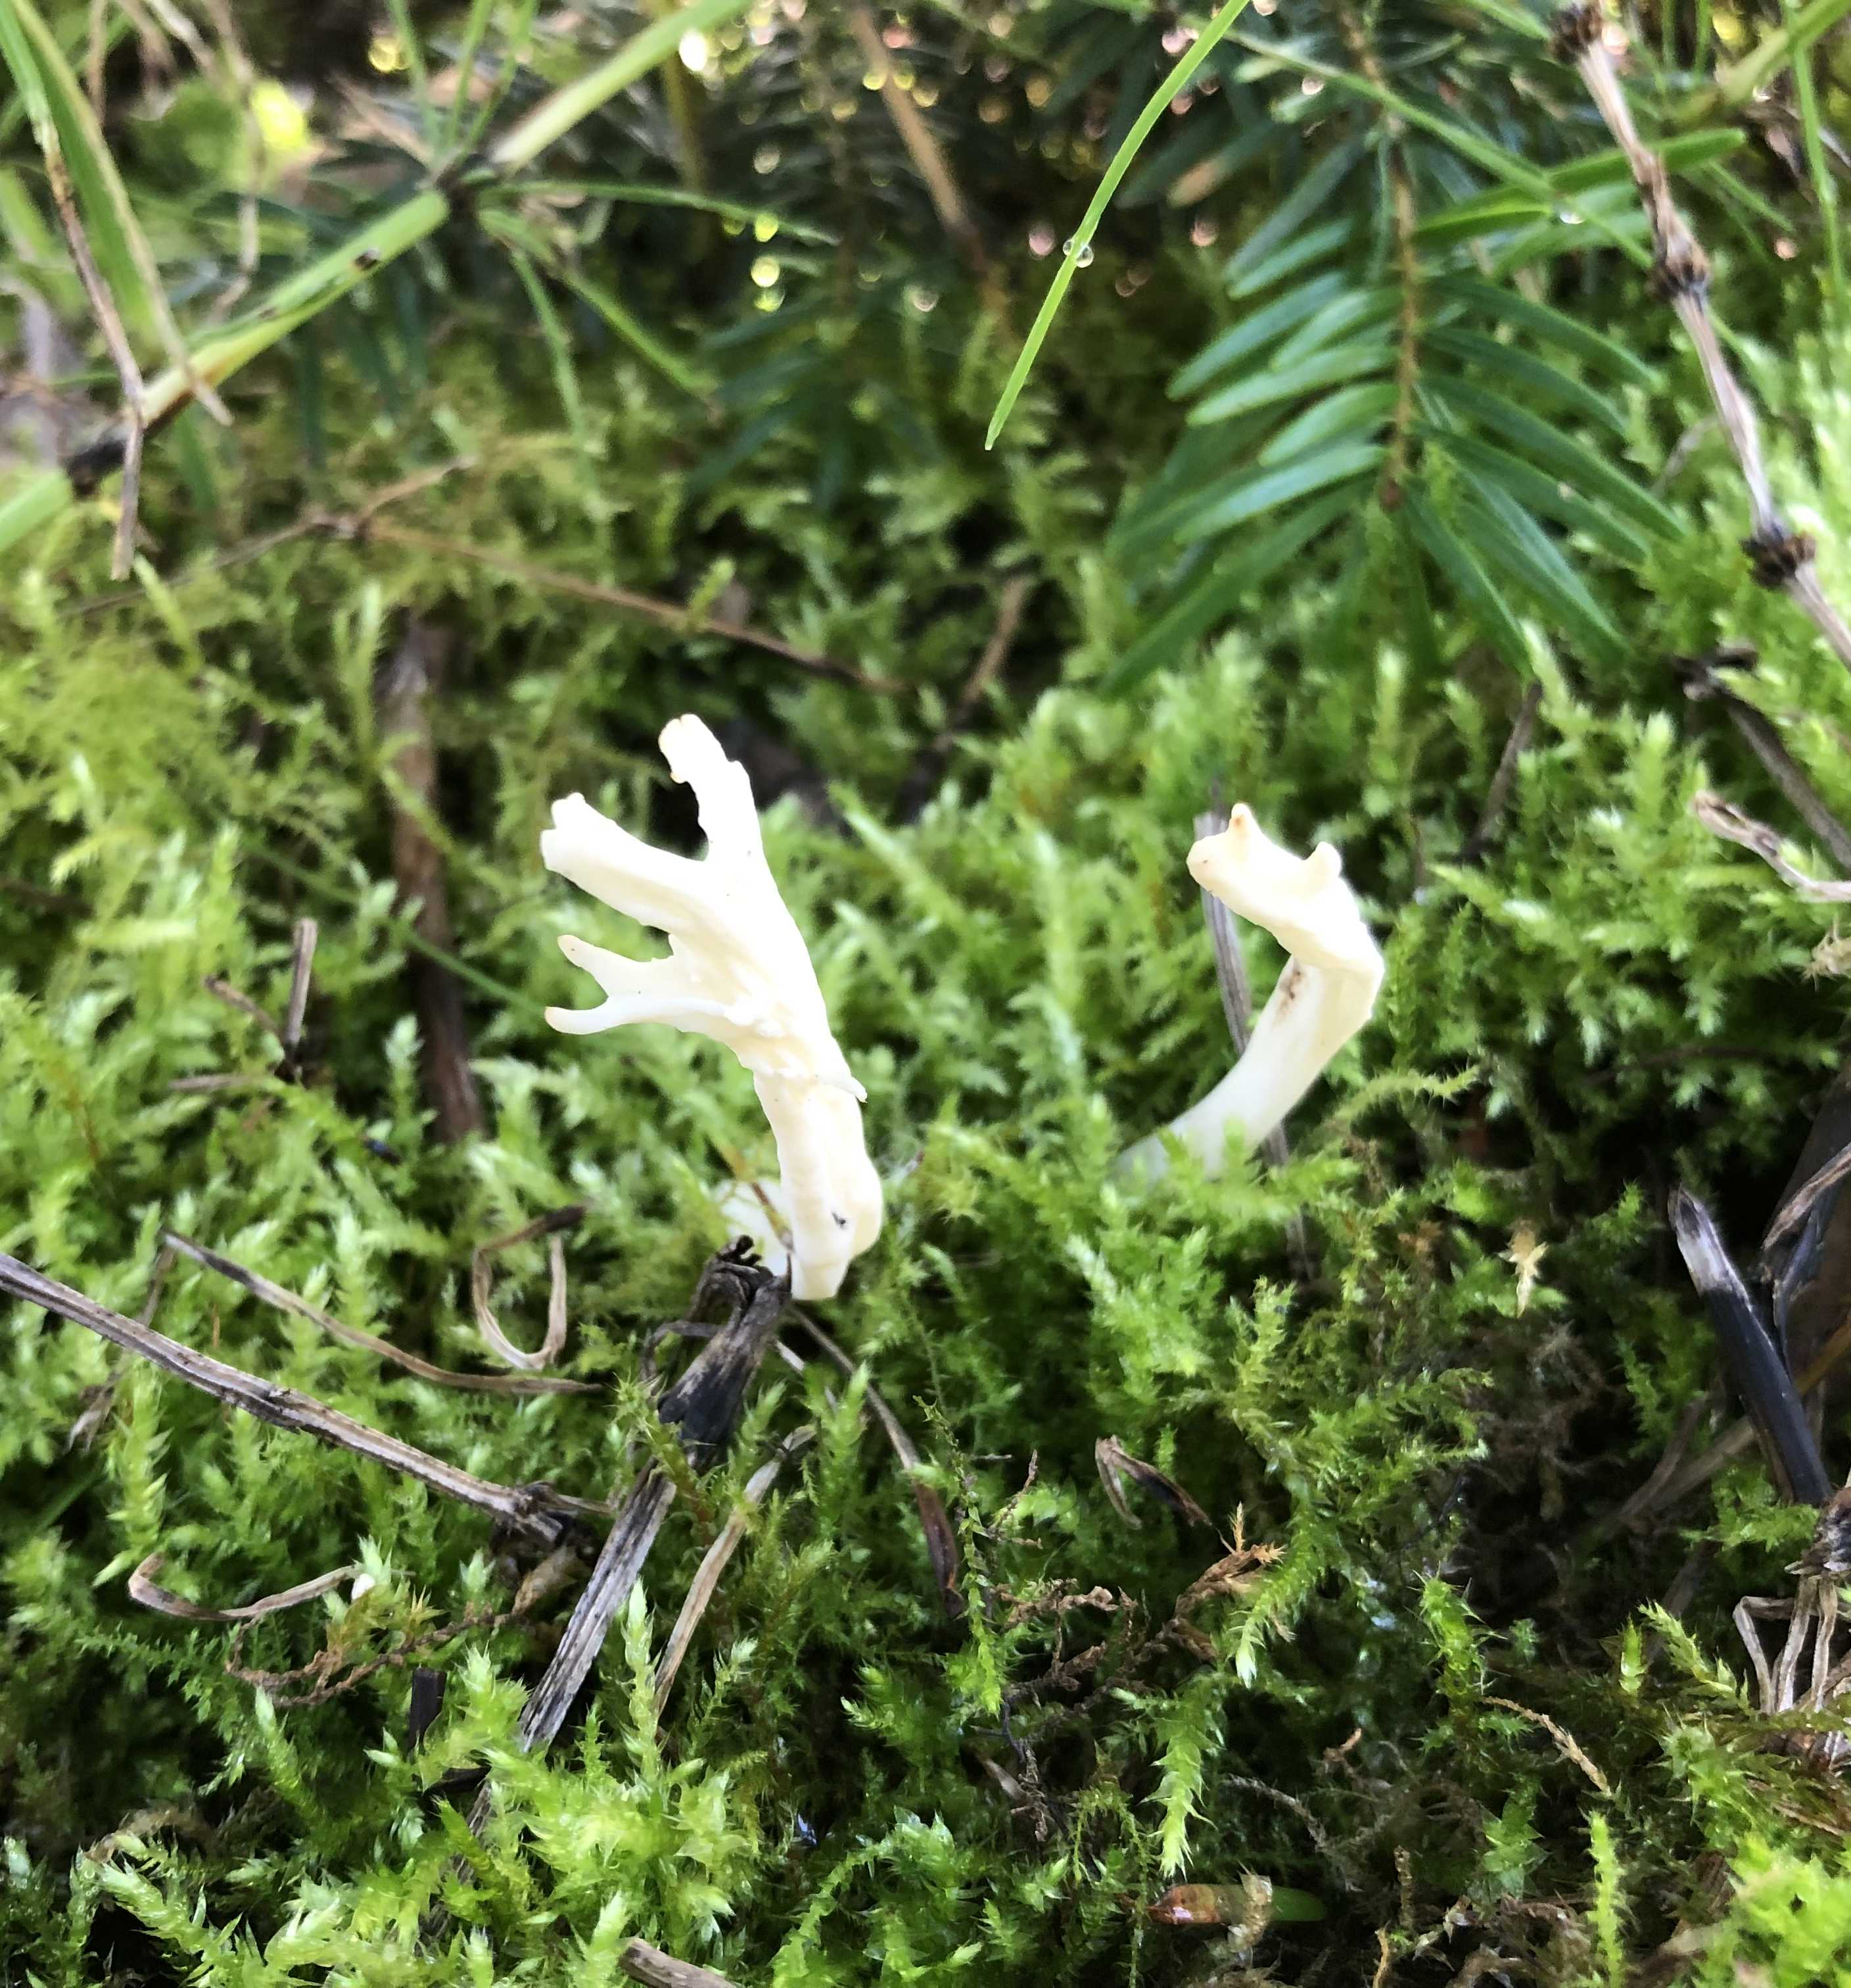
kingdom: Fungi
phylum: Basidiomycota
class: Agaricomycetes
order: Cantharellales
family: Hydnaceae
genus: Clavulina
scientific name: Clavulina
